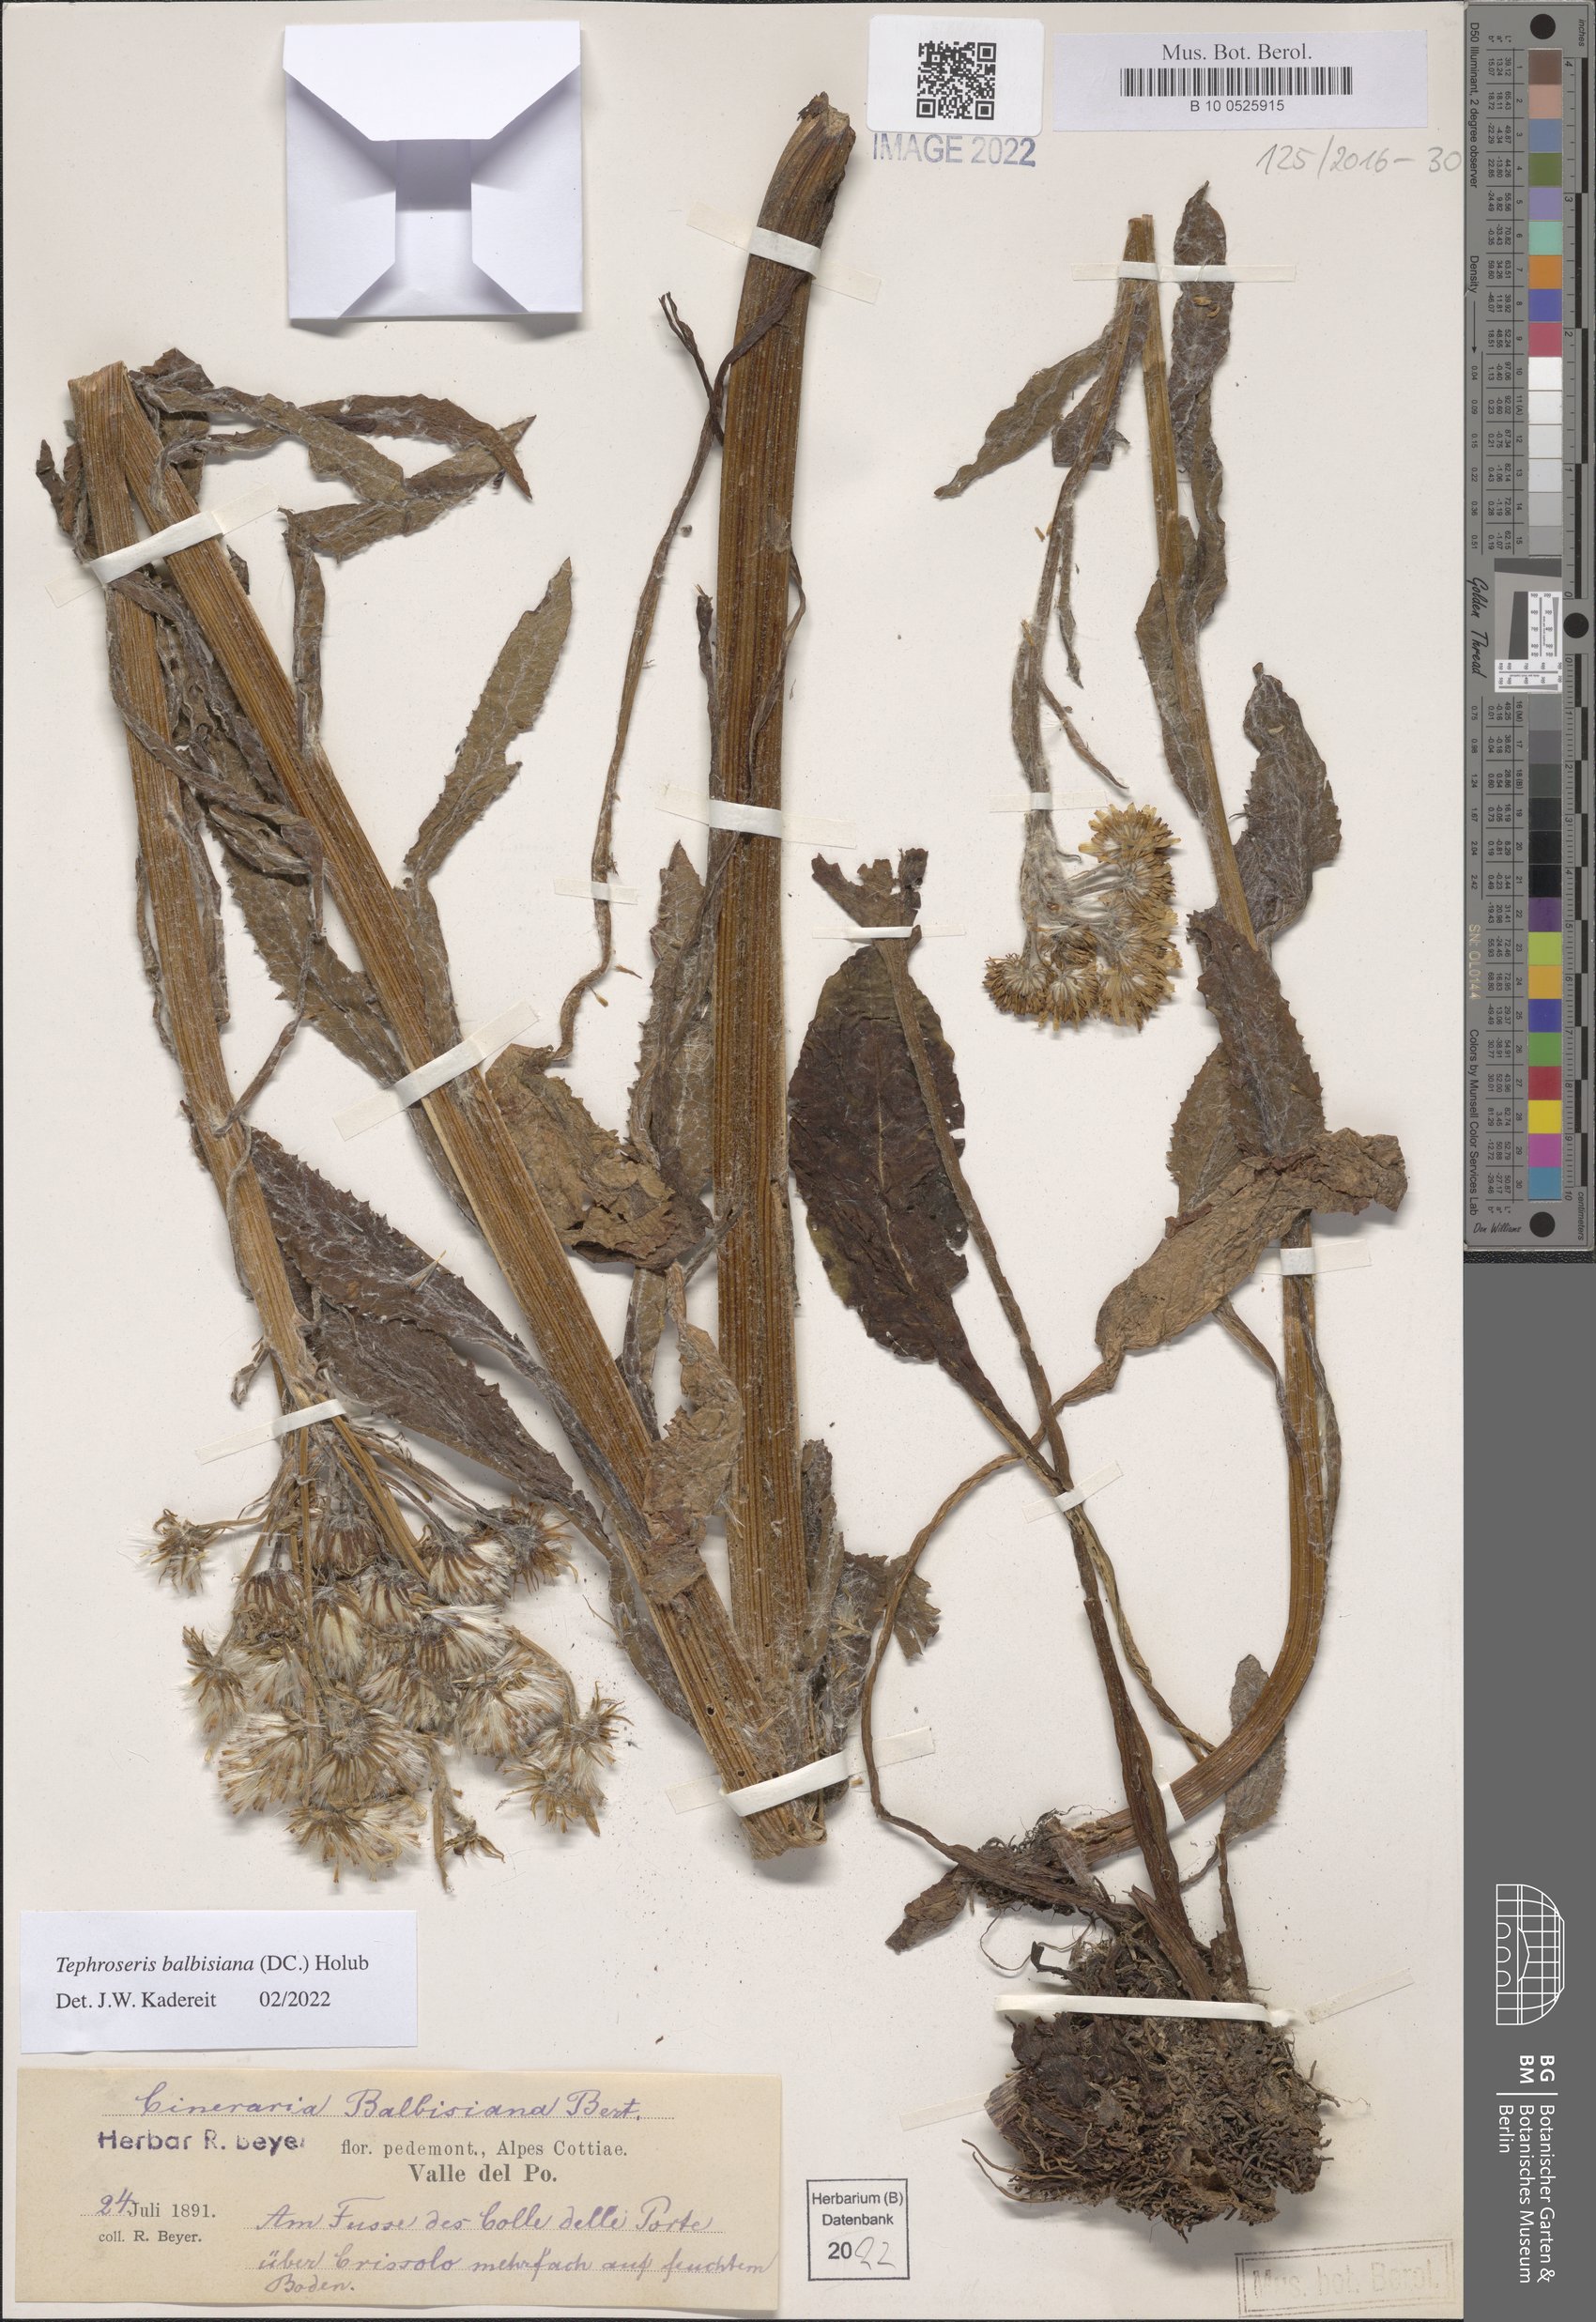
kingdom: Plantae
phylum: Tracheophyta
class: Magnoliopsida
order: Asterales
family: Asteraceae
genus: Tephroseris
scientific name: Tephroseris balbisiana
